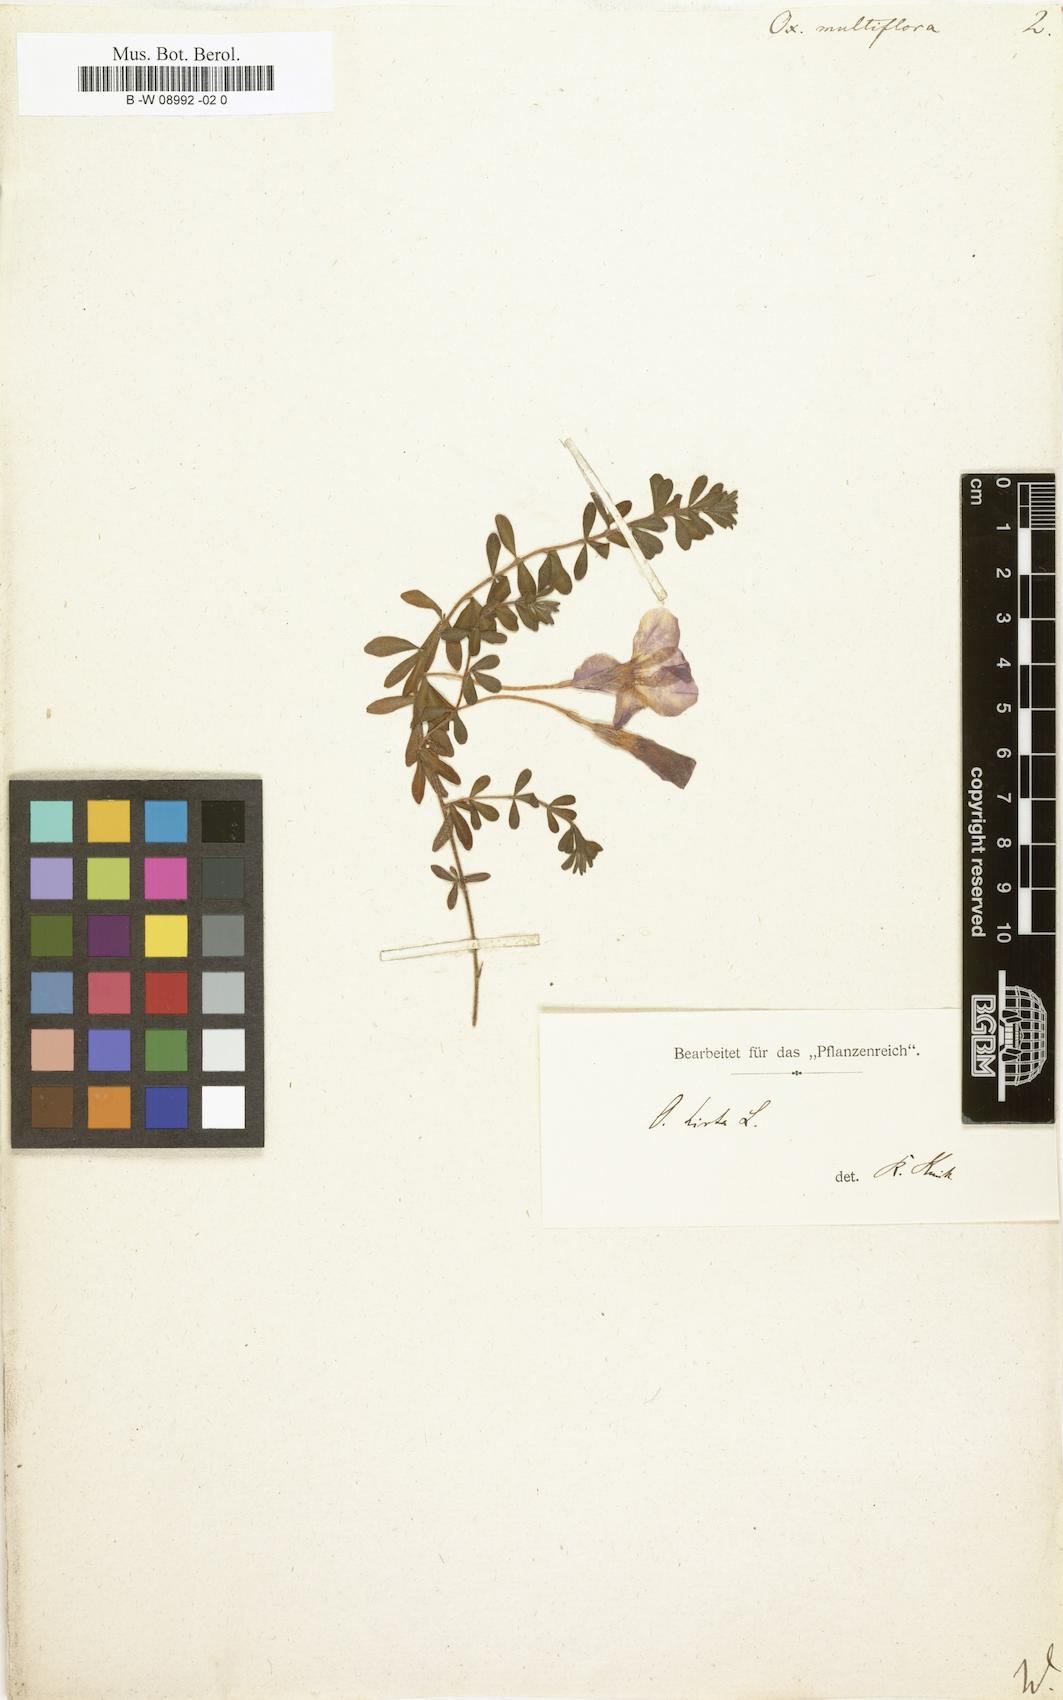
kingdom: Plantae
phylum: Tracheophyta
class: Magnoliopsida
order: Oxalidales
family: Oxalidaceae
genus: Oxalis
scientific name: Oxalis hirta
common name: Tropical woodsorrel
